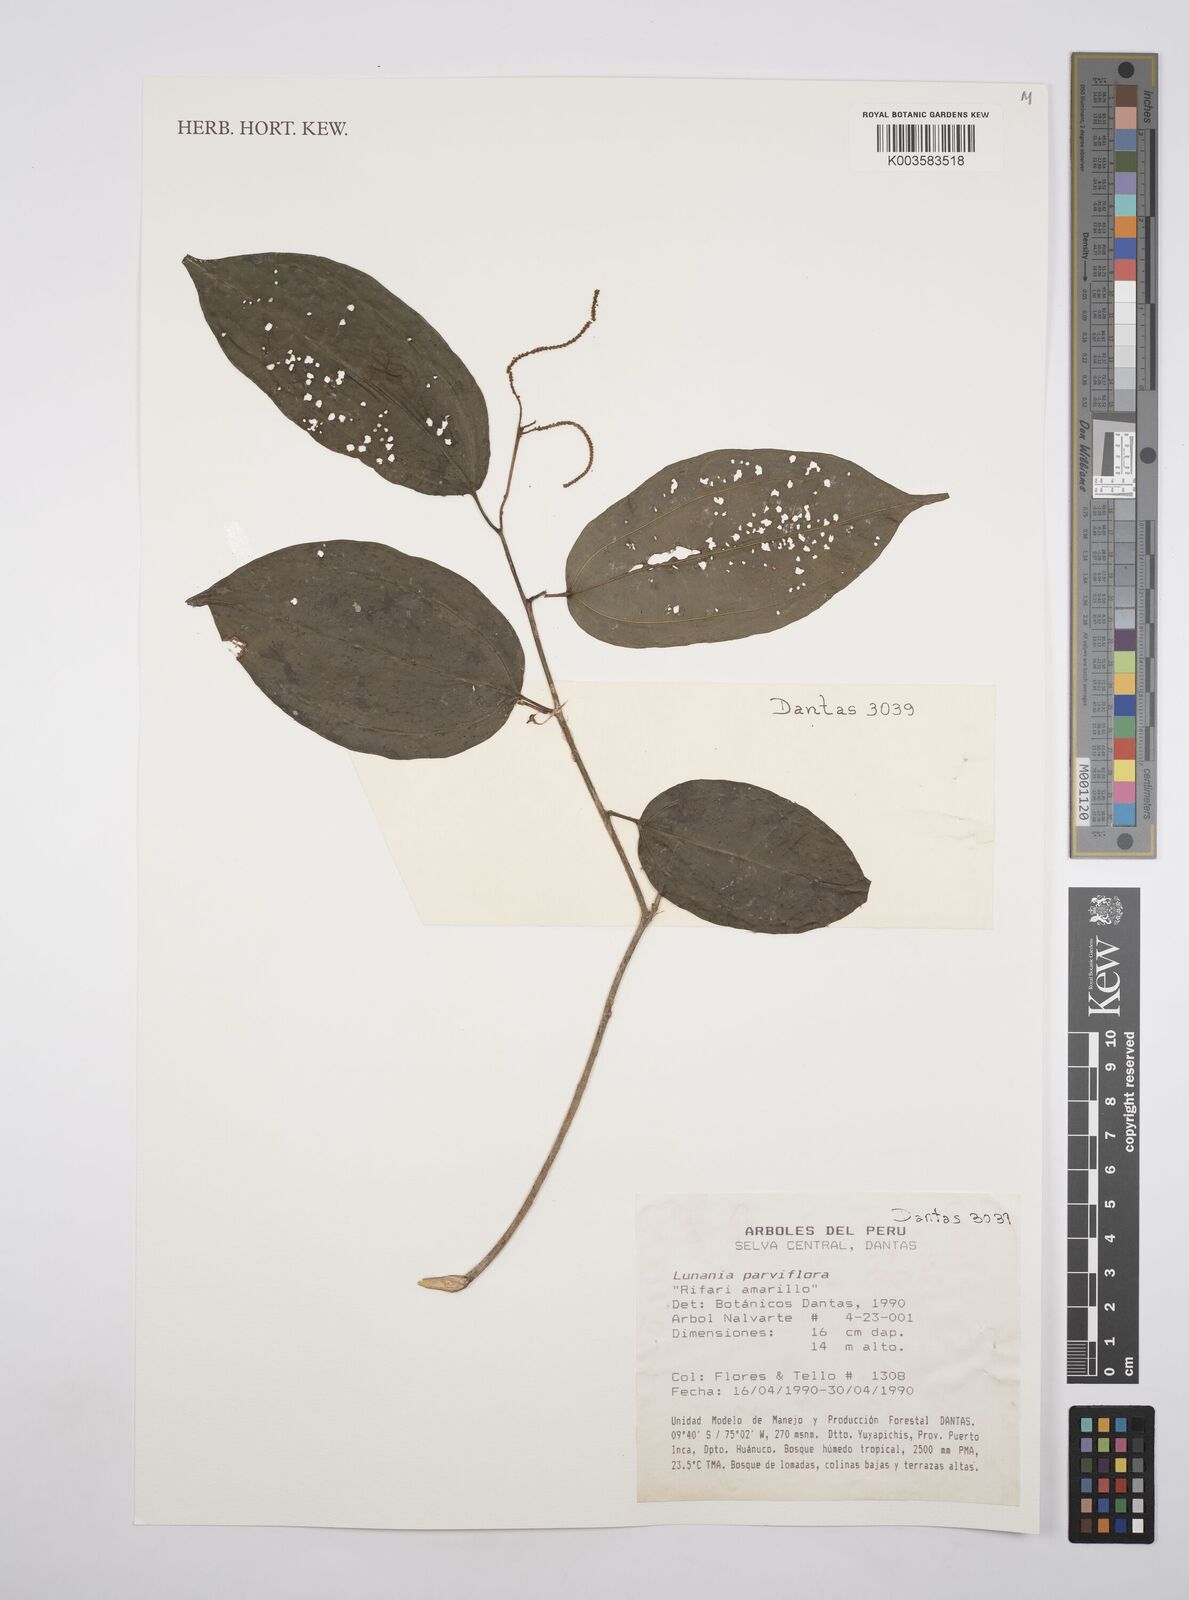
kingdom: Plantae
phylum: Tracheophyta
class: Magnoliopsida
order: Malpighiales
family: Salicaceae
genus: Lunania
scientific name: Lunania parviflora
